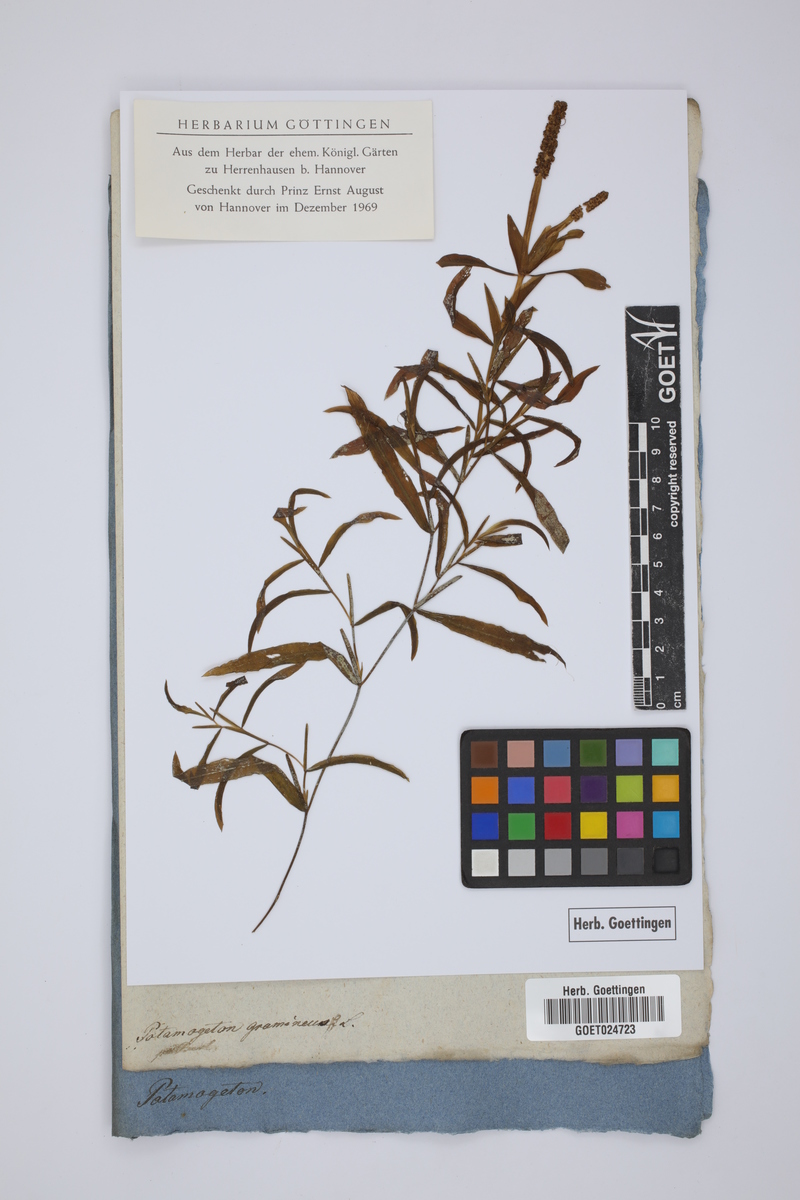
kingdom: Plantae
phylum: Tracheophyta
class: Liliopsida
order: Alismatales
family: Potamogetonaceae
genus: Potamogeton
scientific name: Potamogeton gramineus
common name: Various-leaved pondweed
